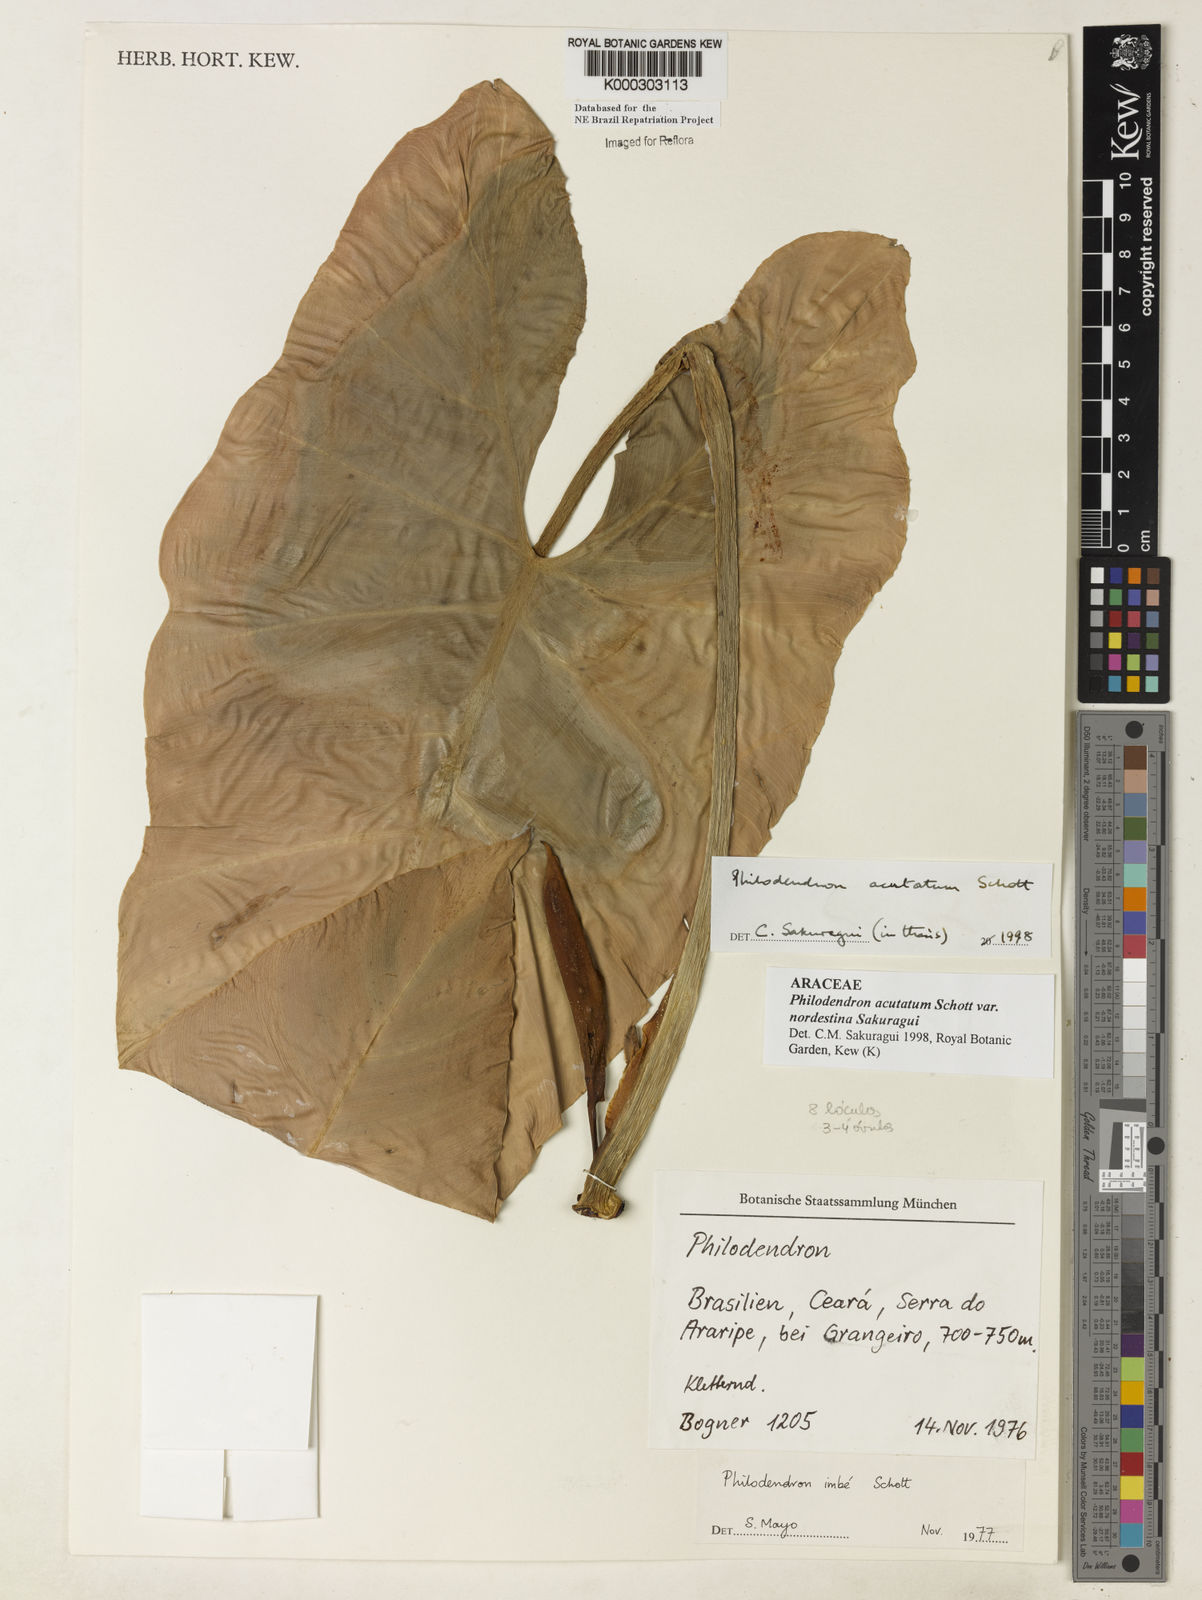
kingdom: Plantae
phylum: Tracheophyta
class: Liliopsida
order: Alismatales
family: Araceae
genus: Philodendron
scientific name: Philodendron quinquenervium
